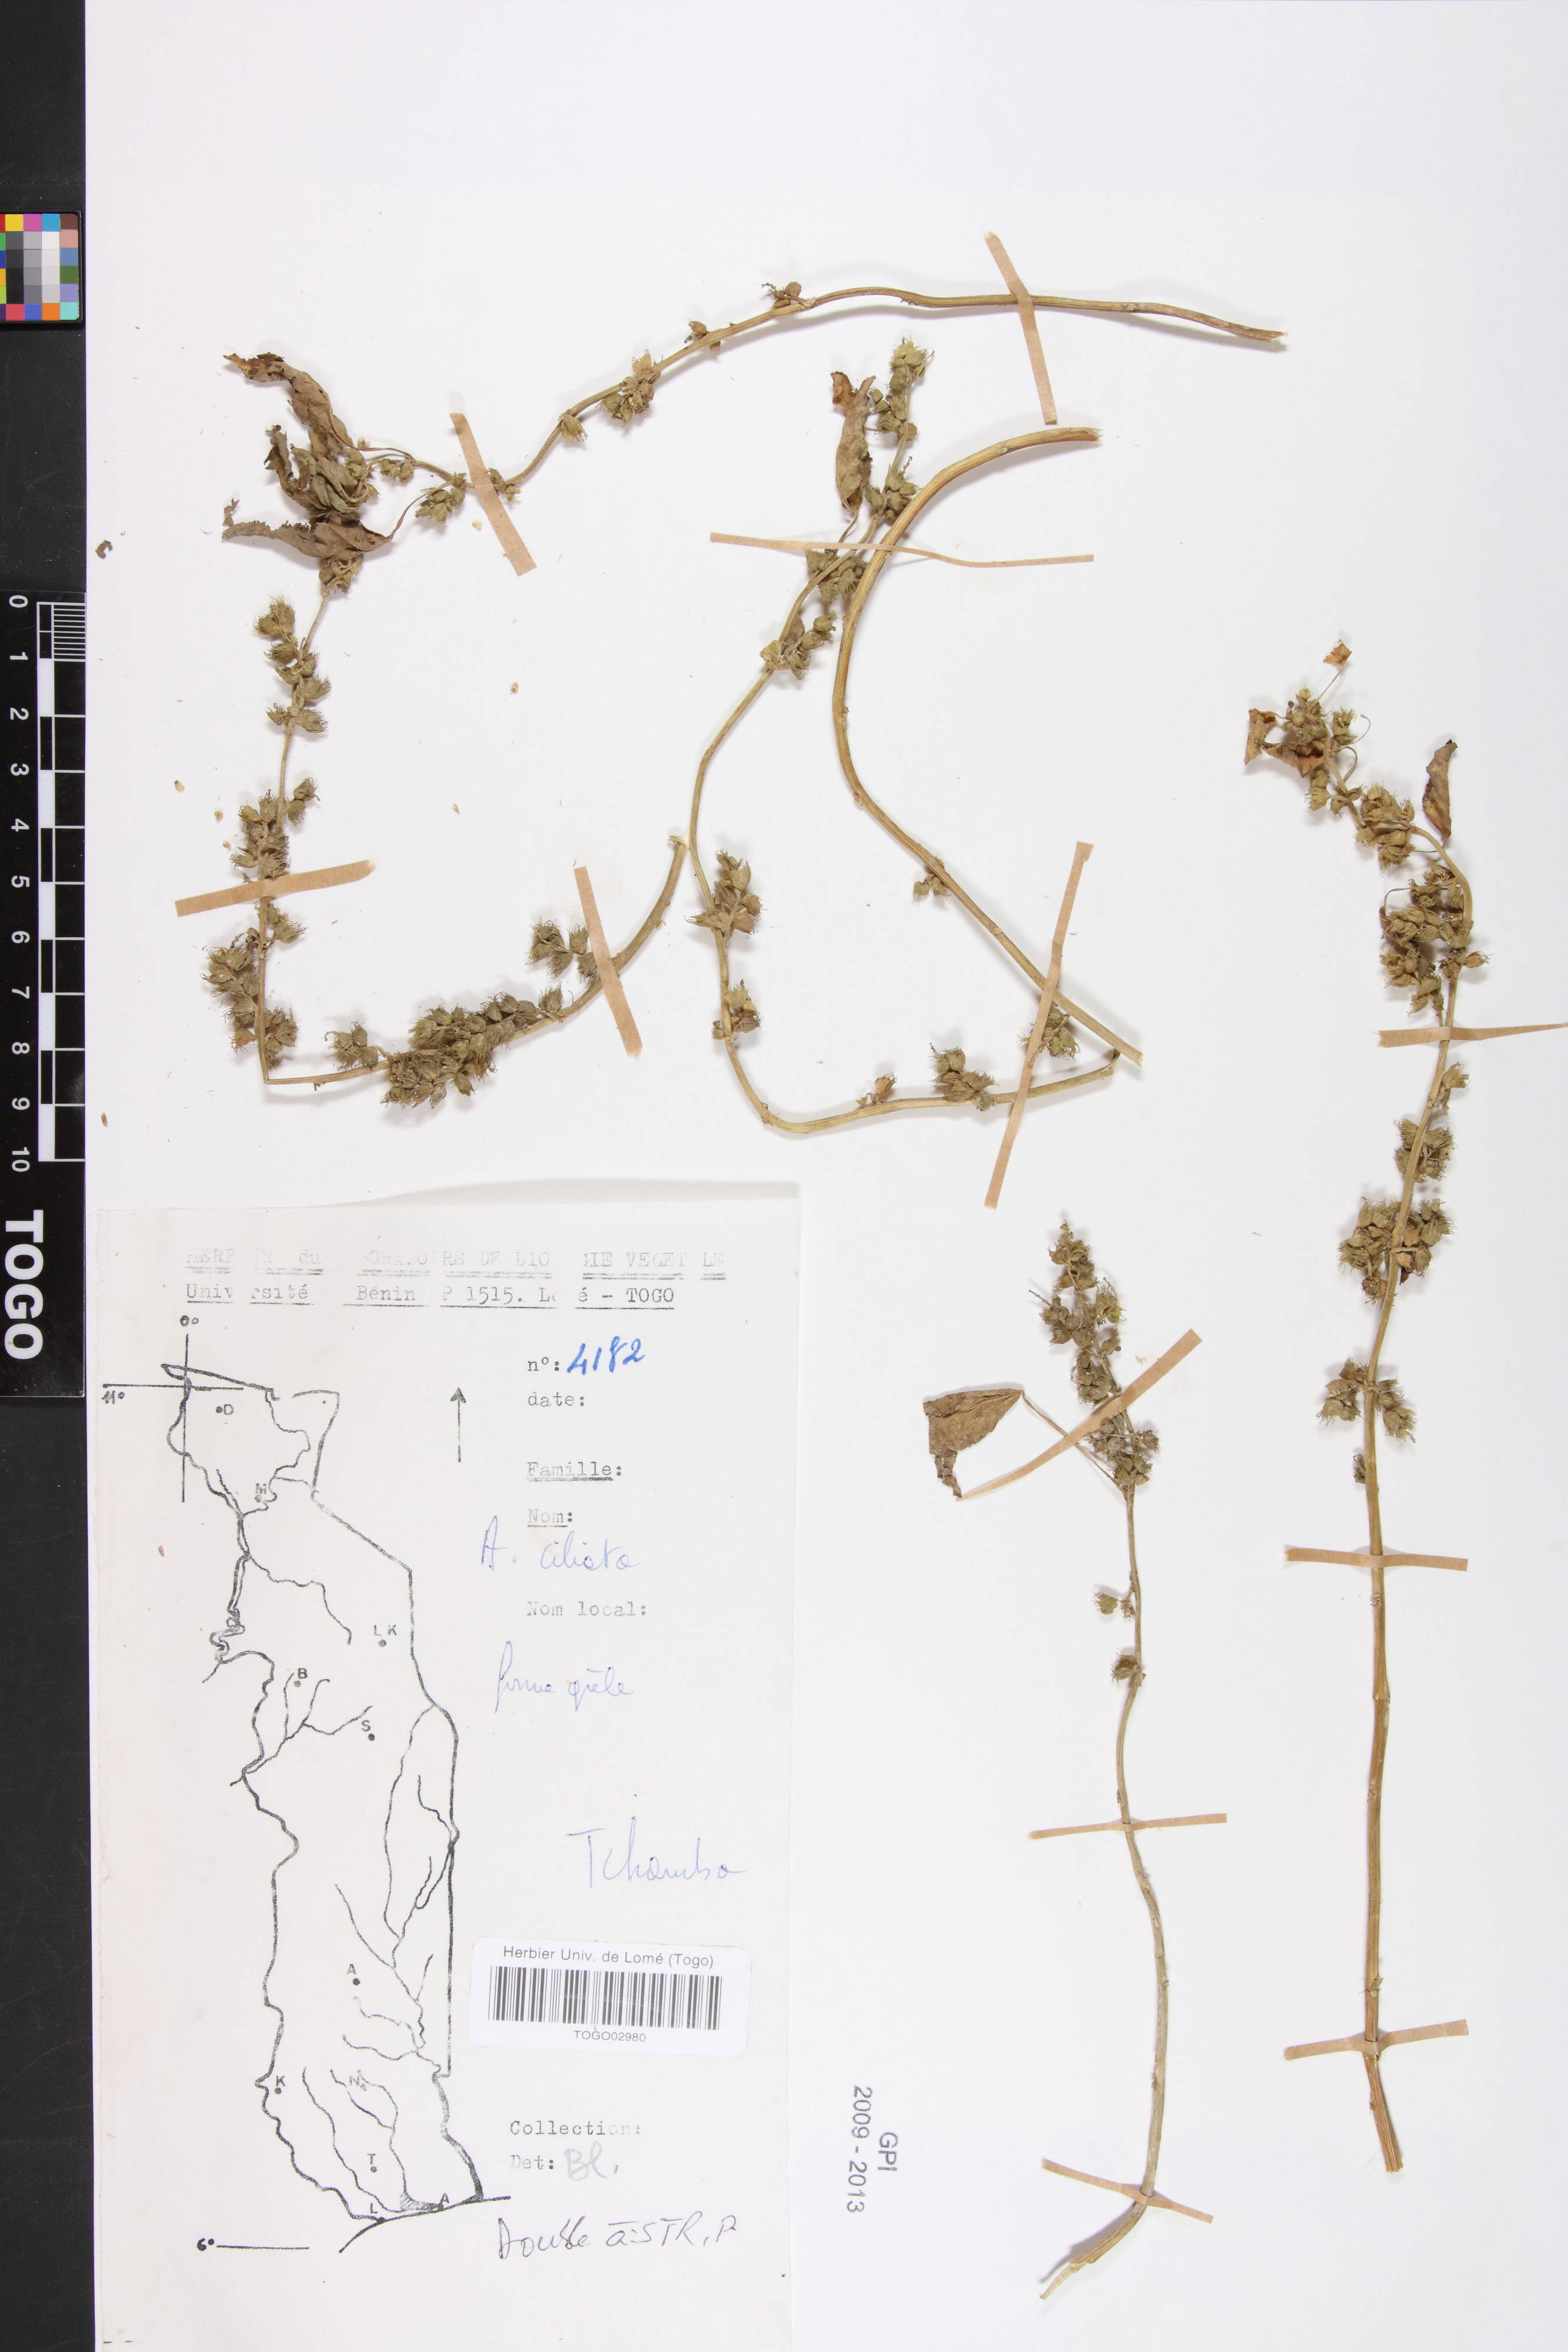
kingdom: Plantae
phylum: Tracheophyta
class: Magnoliopsida
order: Malpighiales
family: Phyllanthaceae
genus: Maesobotrya
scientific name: Maesobotrya
